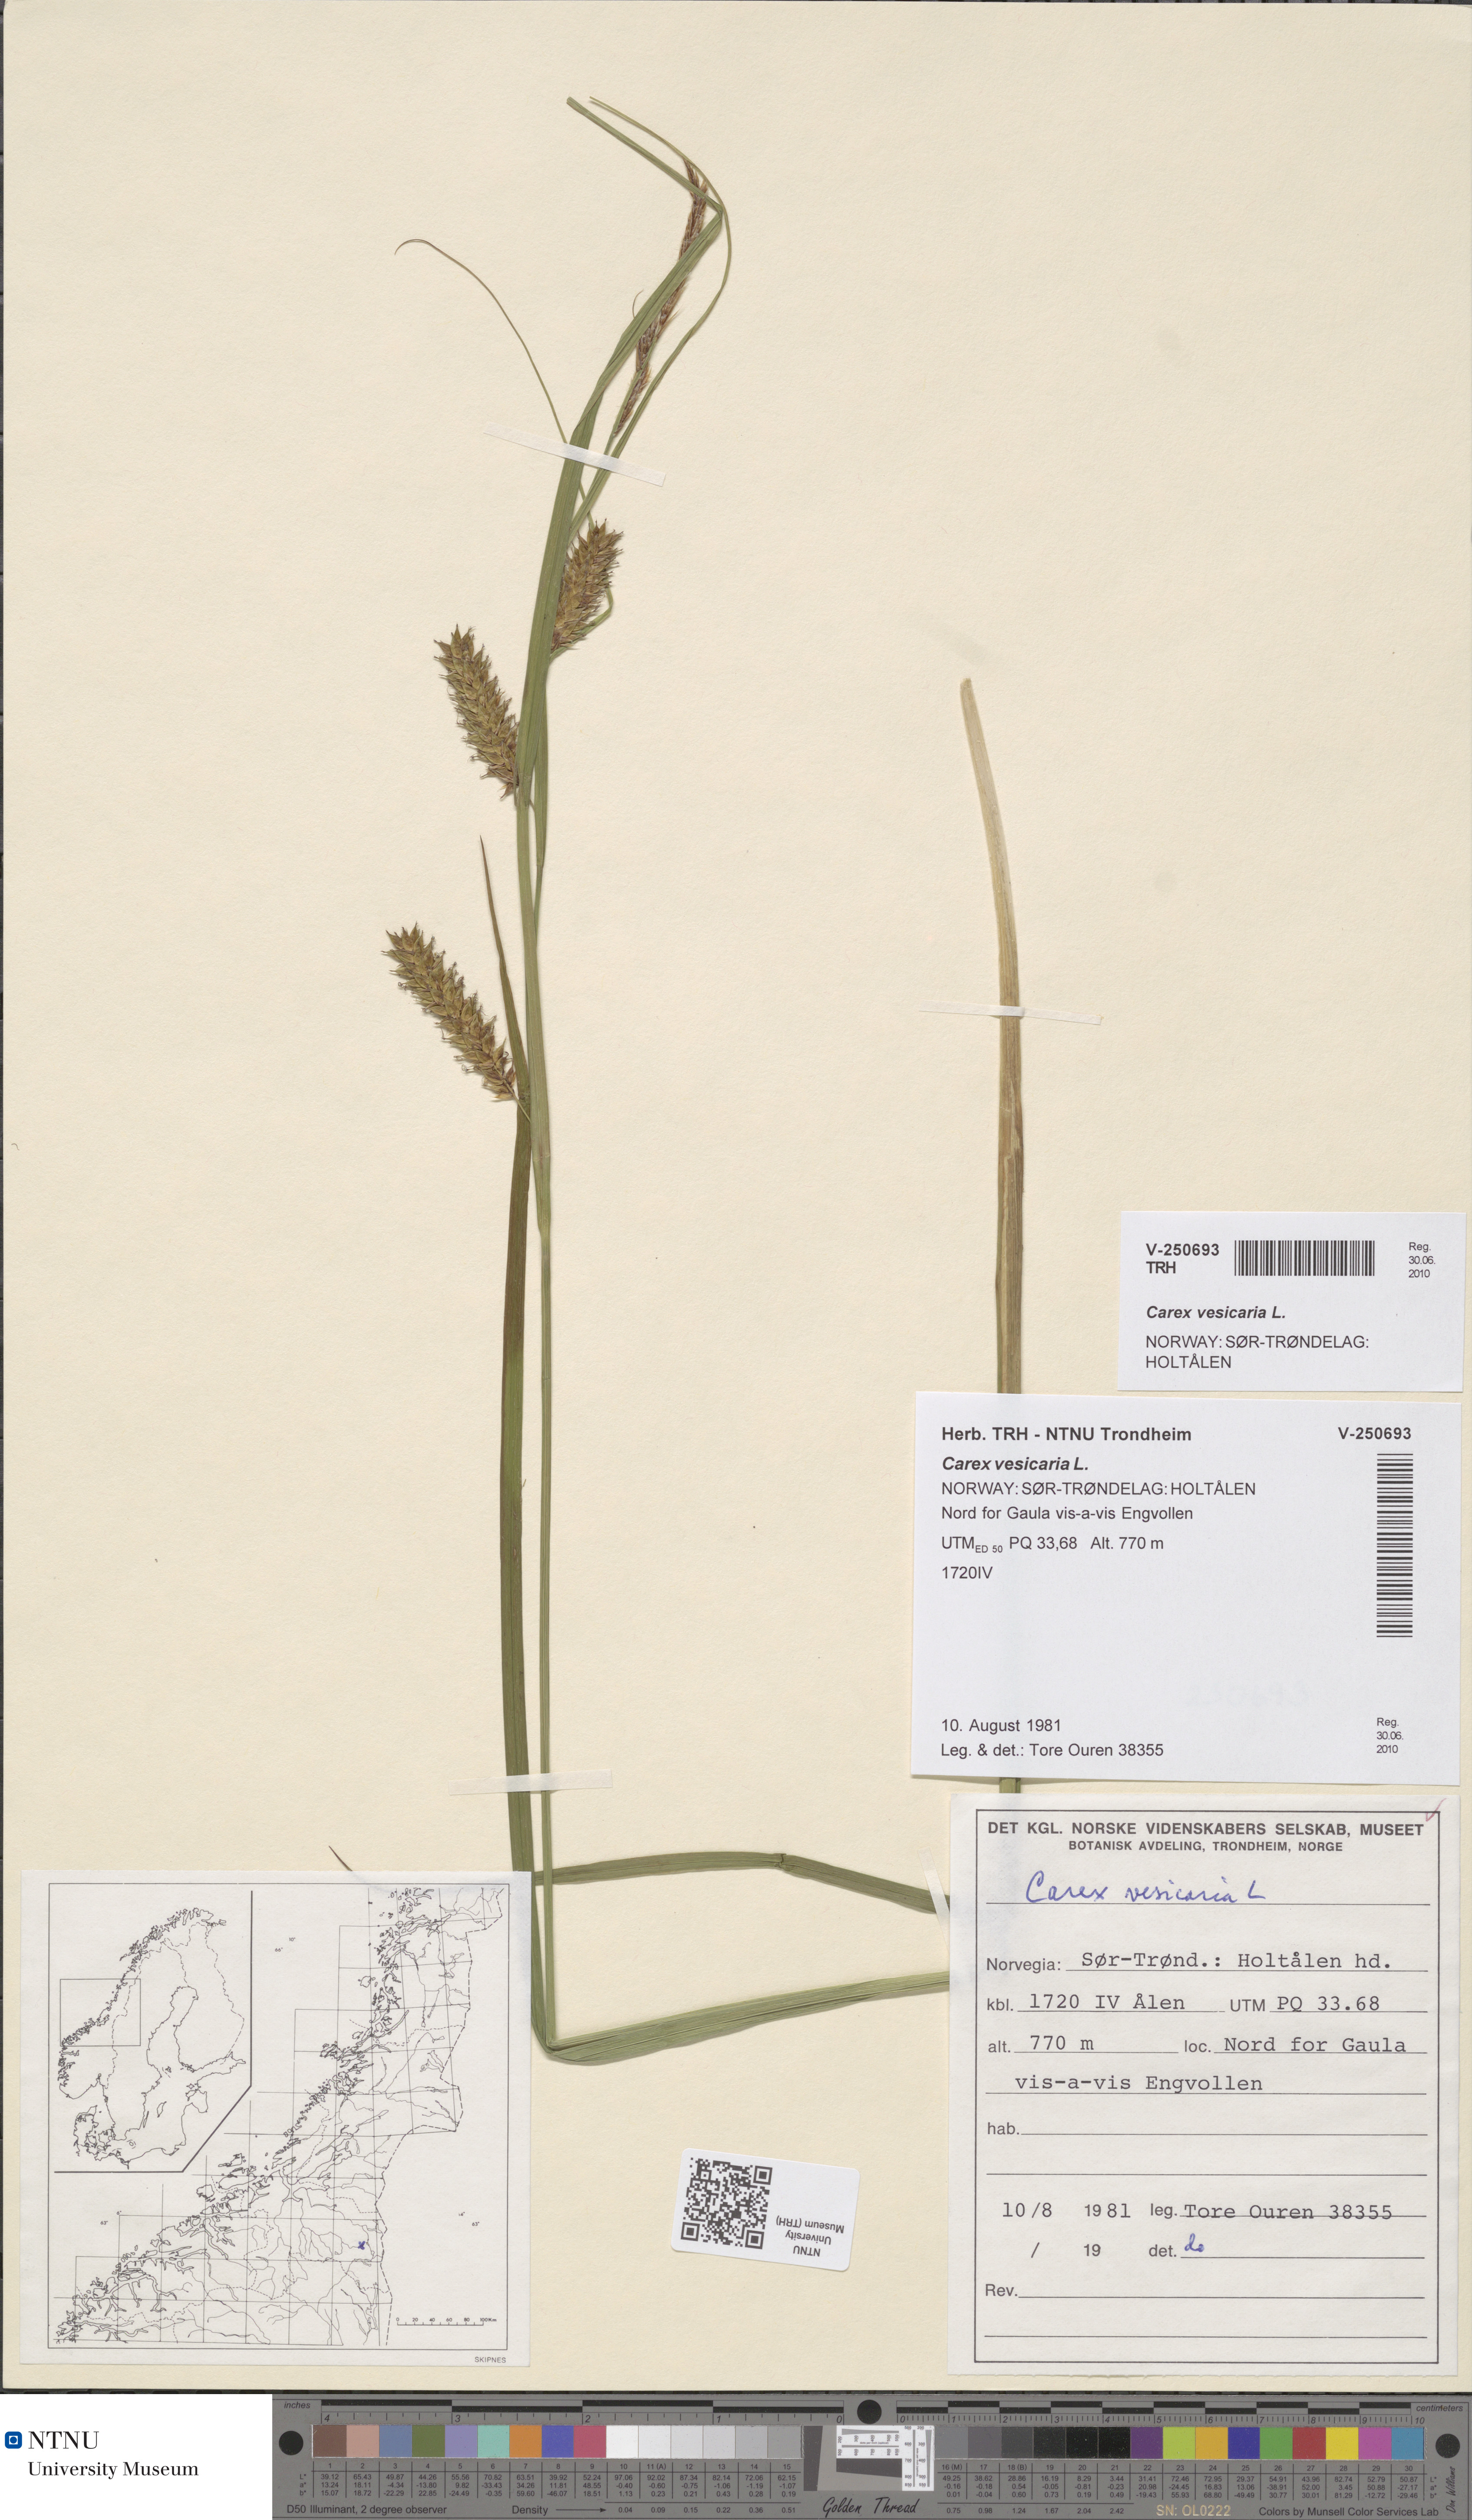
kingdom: Plantae
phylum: Tracheophyta
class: Liliopsida
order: Poales
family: Cyperaceae
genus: Carex
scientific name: Carex vesicaria
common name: Bladder-sedge
